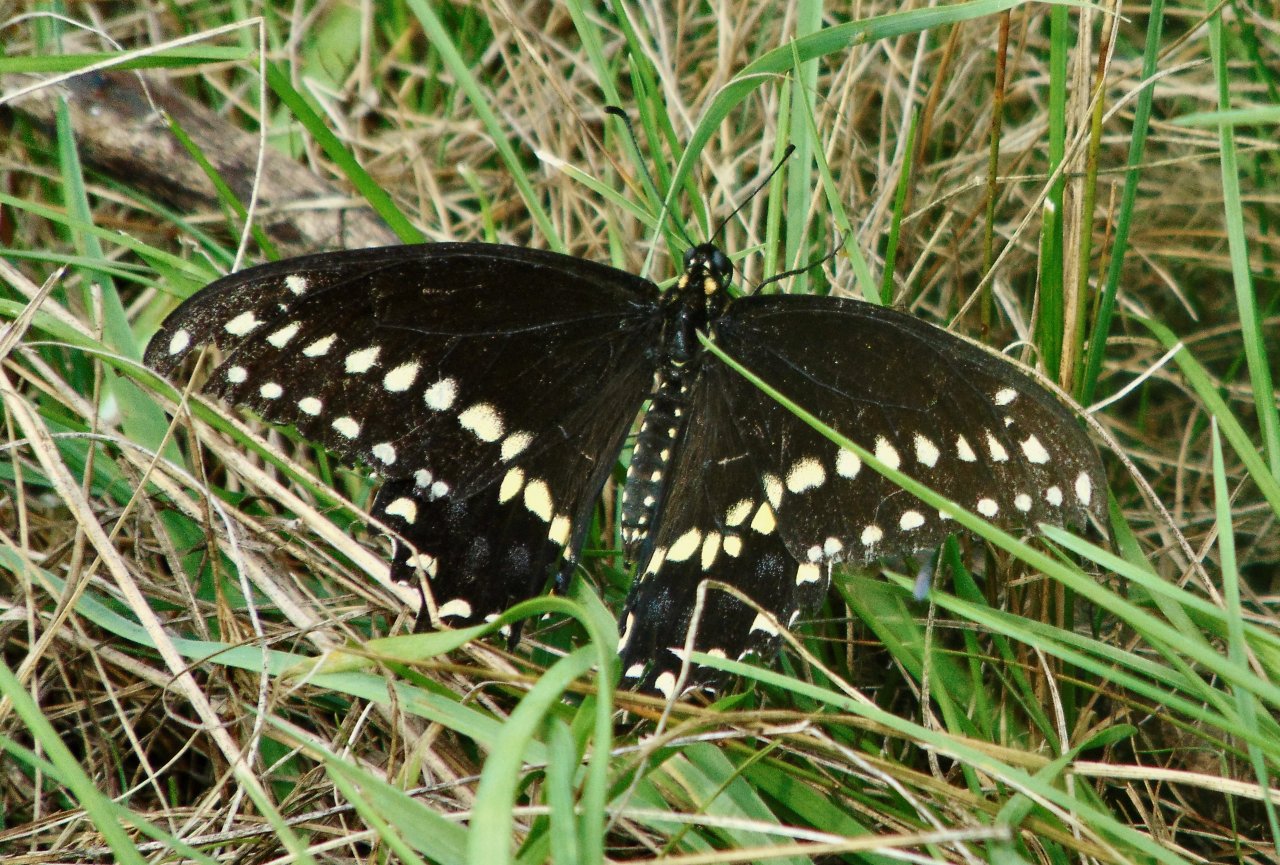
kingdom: Animalia
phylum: Arthropoda
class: Insecta
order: Lepidoptera
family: Papilionidae
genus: Papilio
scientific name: Papilio polyxenes
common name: Black Swallowtail
